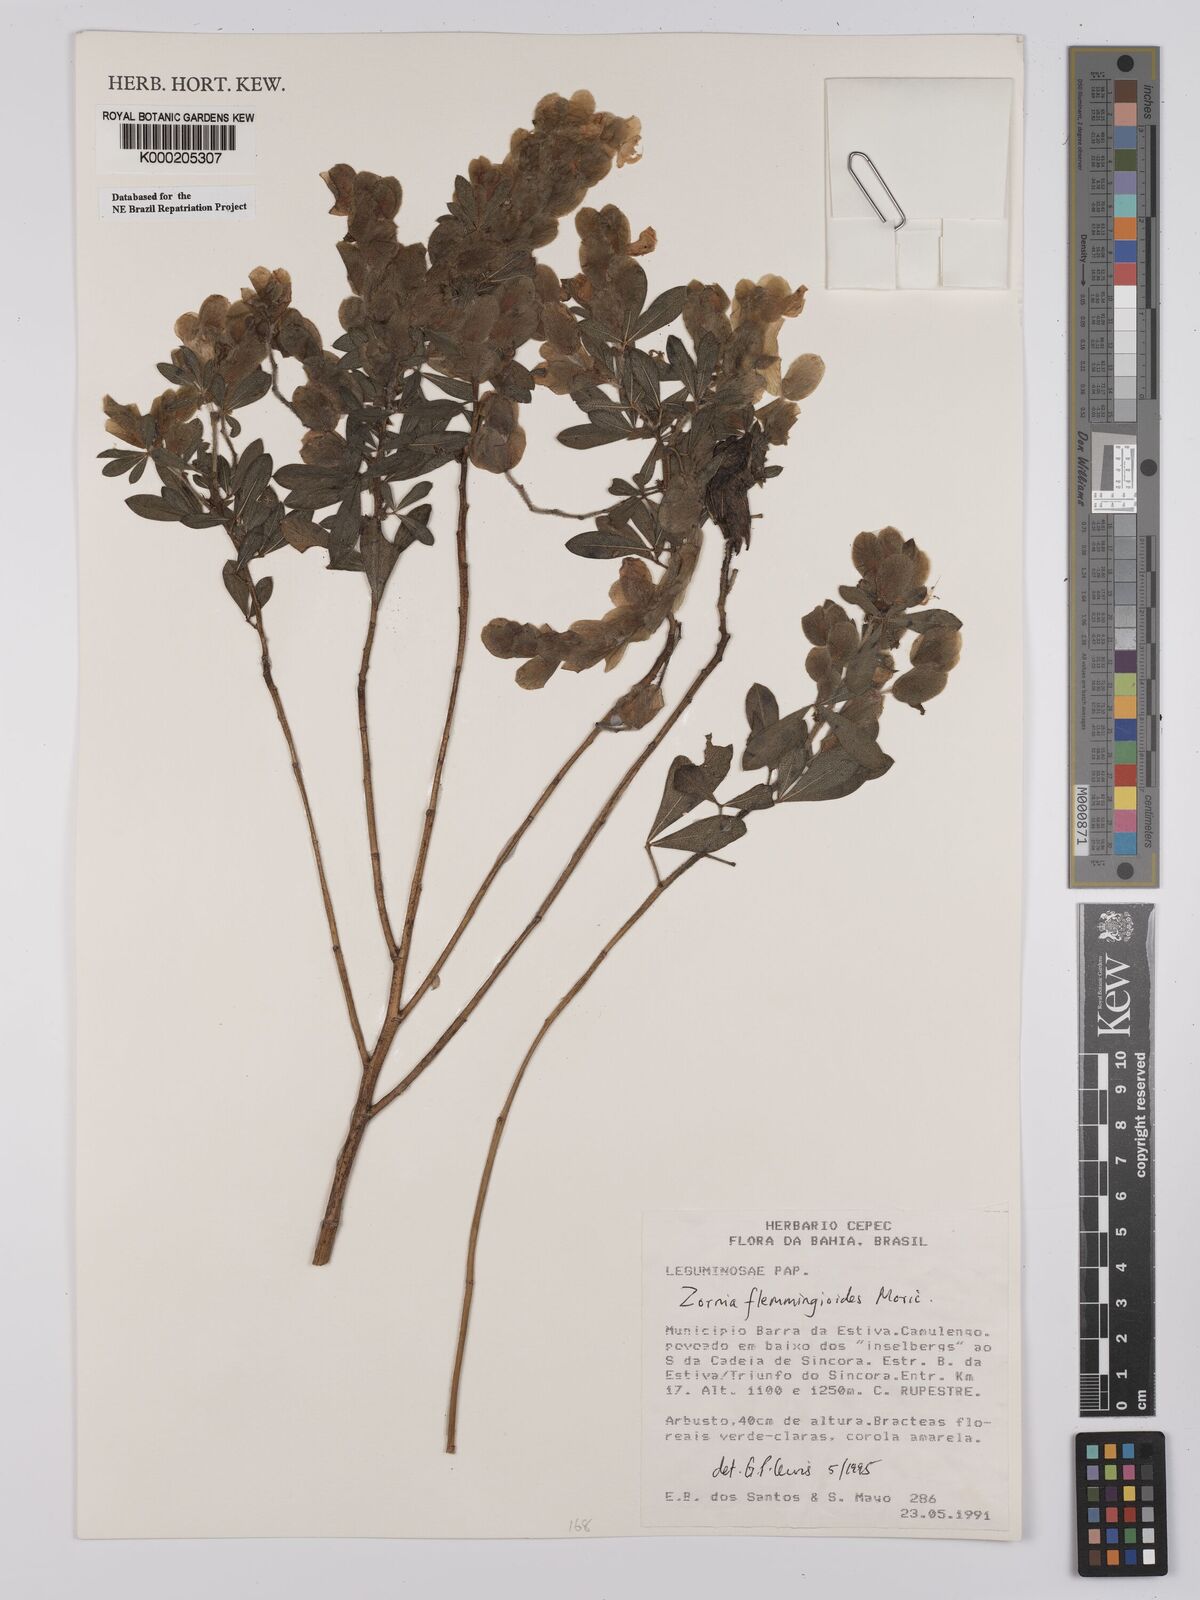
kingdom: Plantae
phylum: Tracheophyta
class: Magnoliopsida
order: Fabales
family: Fabaceae
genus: Zornia
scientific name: Zornia flemmingioides
